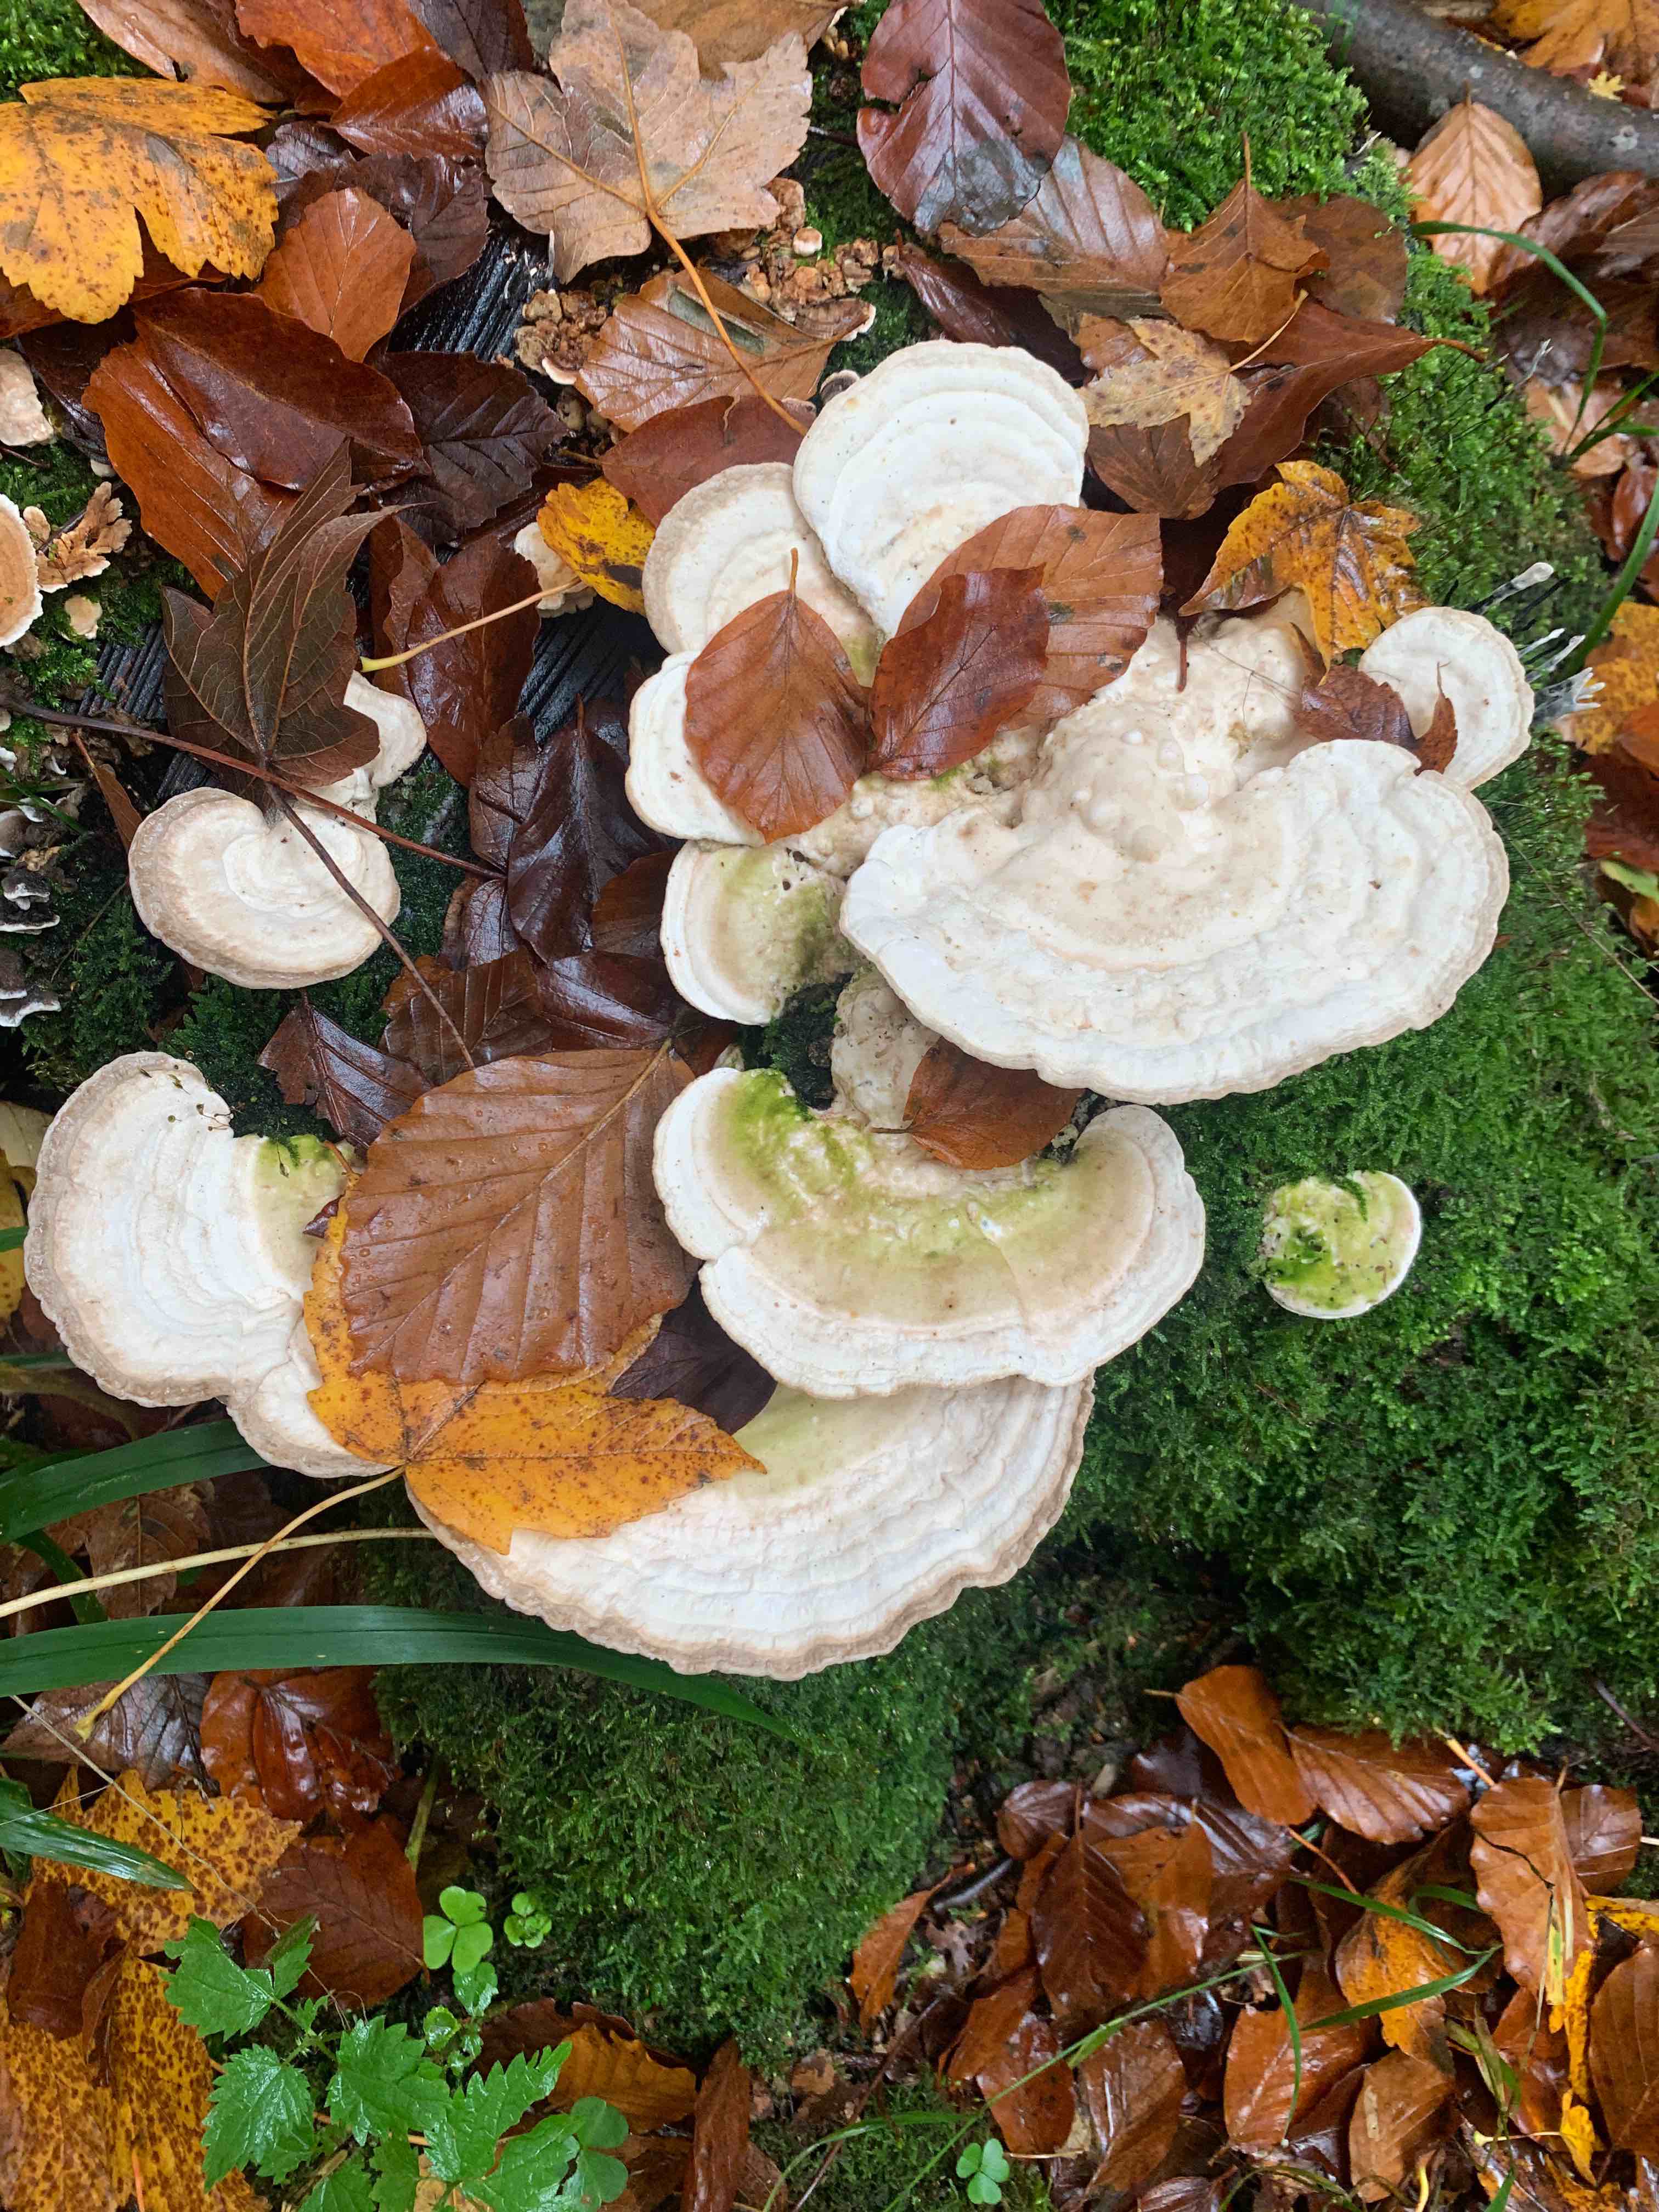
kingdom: Fungi
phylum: Basidiomycota
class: Agaricomycetes
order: Polyporales
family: Polyporaceae
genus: Trametes
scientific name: Trametes hirsuta
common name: håret læderporesvamp
